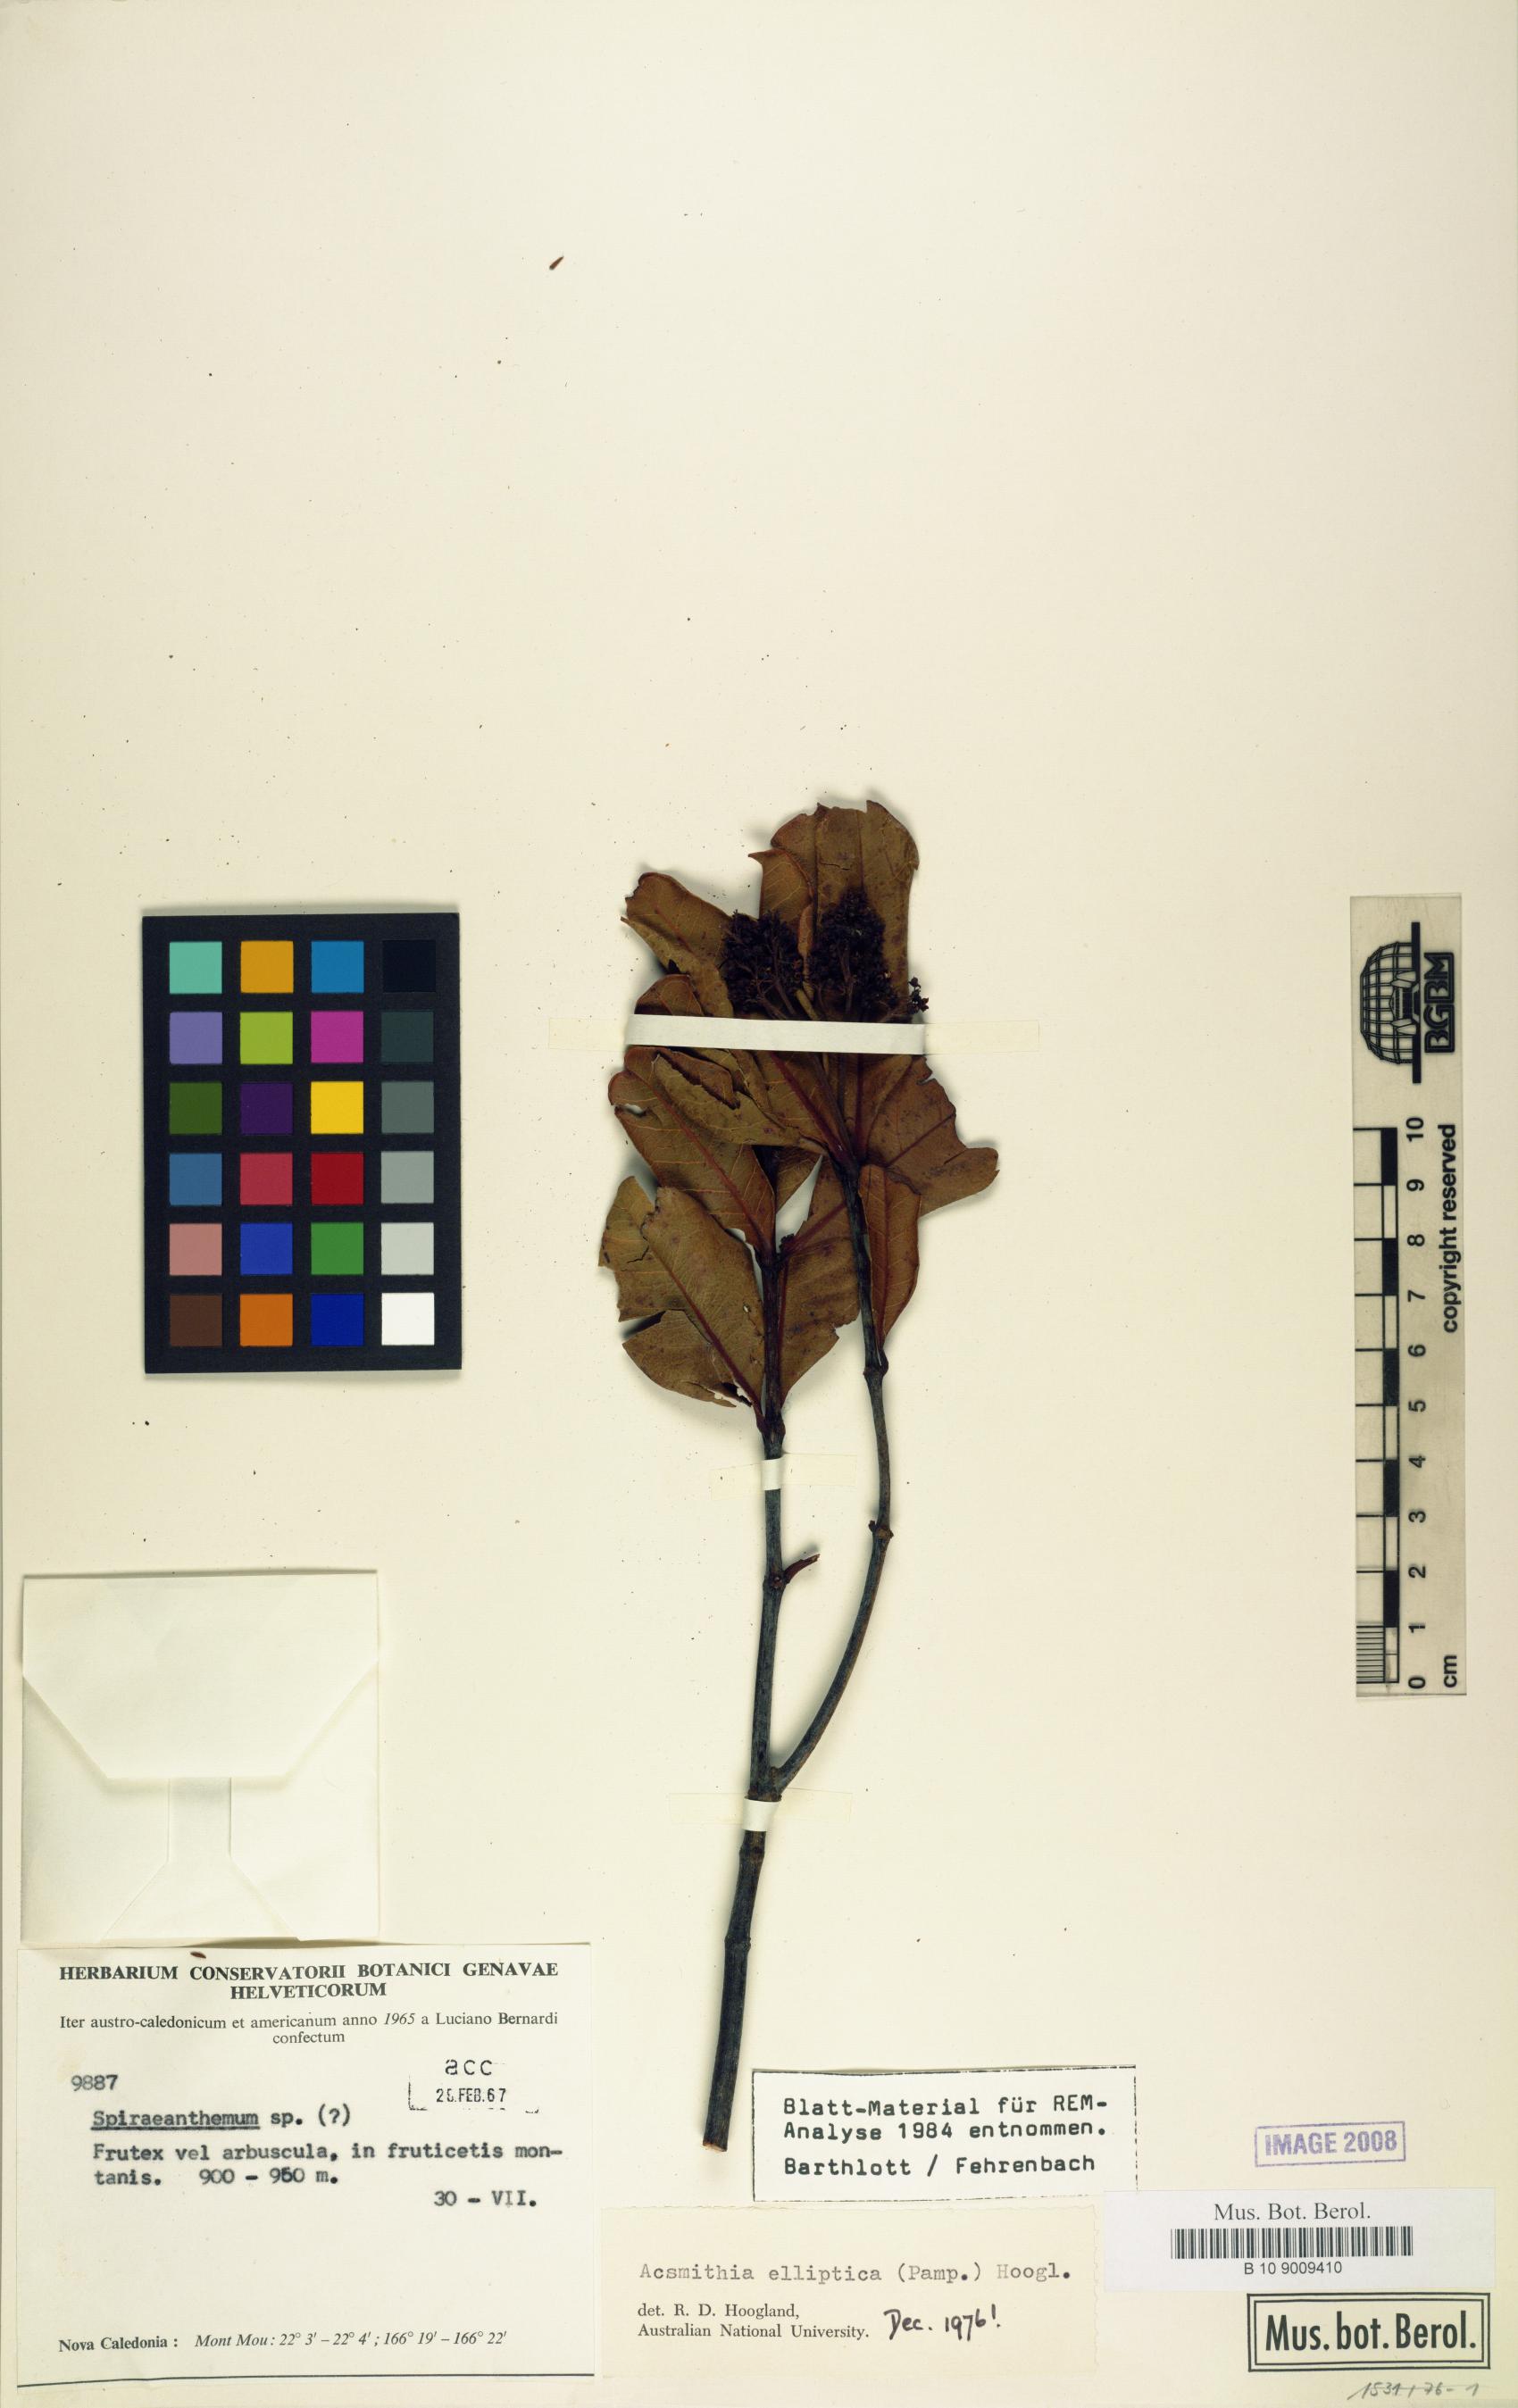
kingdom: Plantae
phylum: Tracheophyta
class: Magnoliopsida
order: Oxalidales
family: Cunoniaceae
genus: Spiraeanthemum
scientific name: Spiraeanthemum ellipticum
